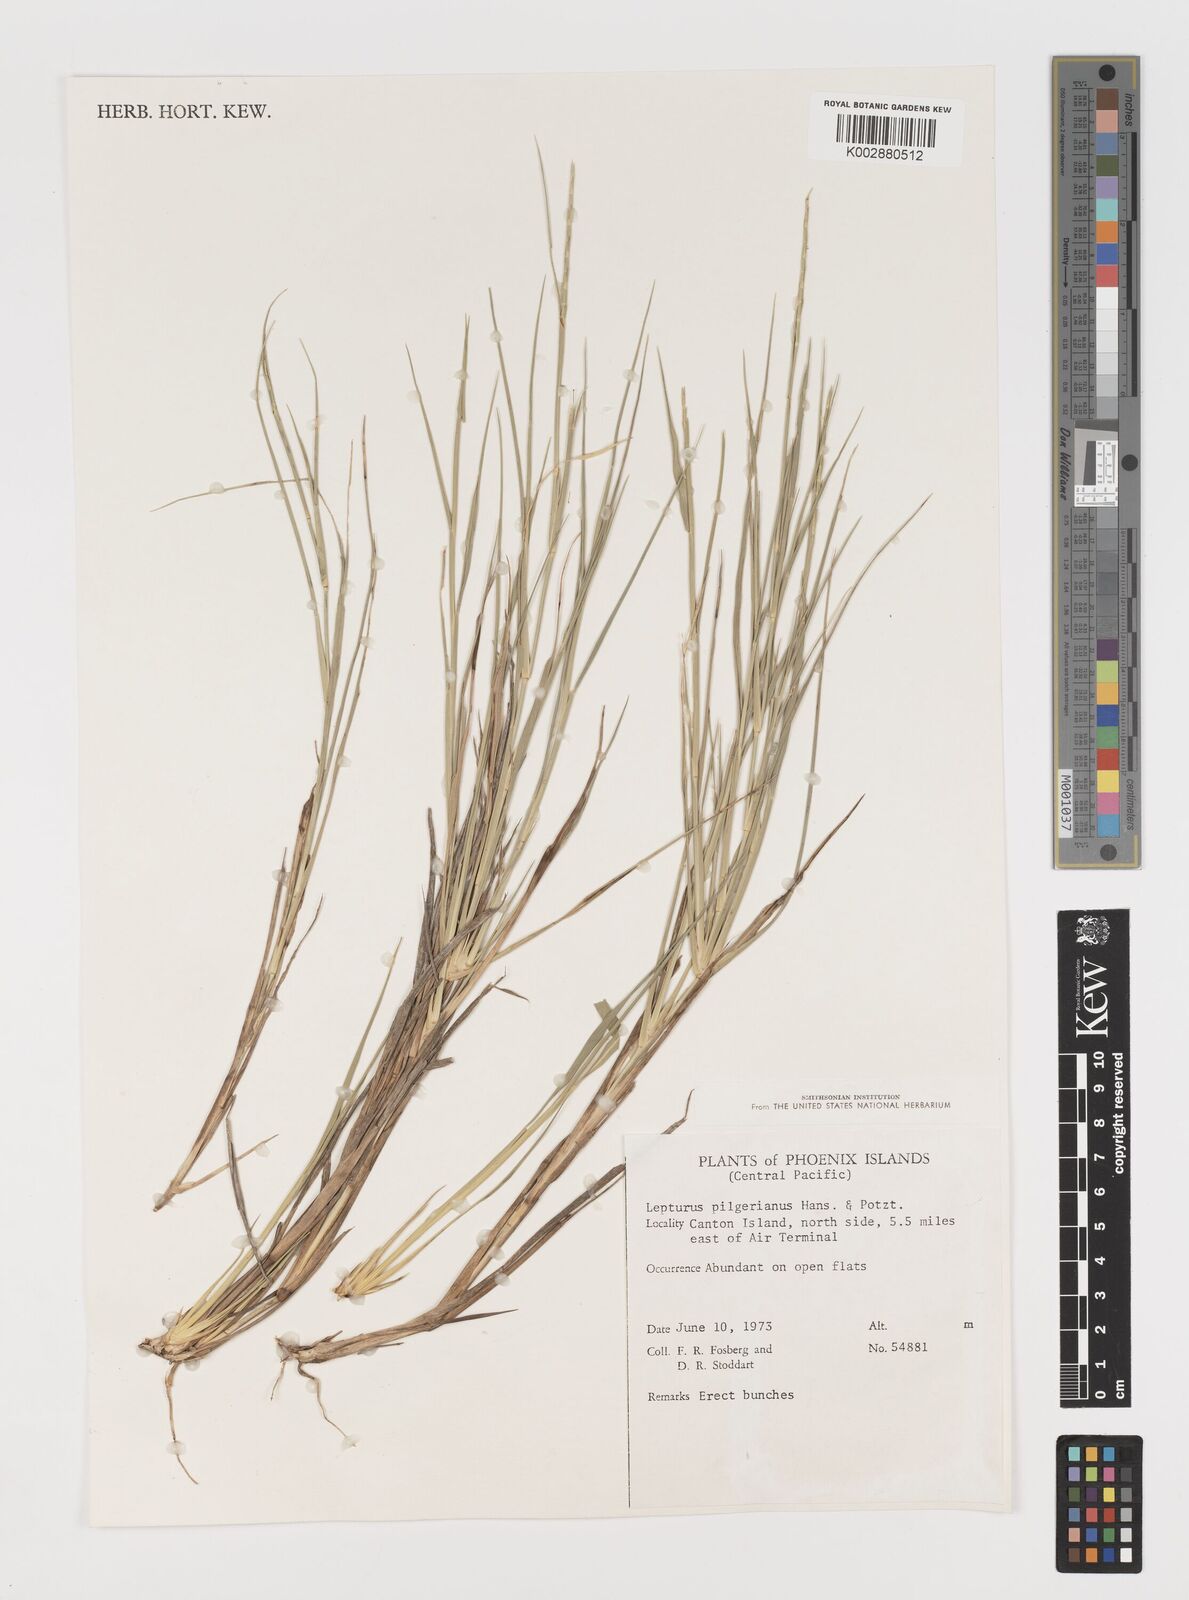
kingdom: Plantae
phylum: Tracheophyta
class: Liliopsida
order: Poales
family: Poaceae
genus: Lepturus
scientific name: Lepturus repens
